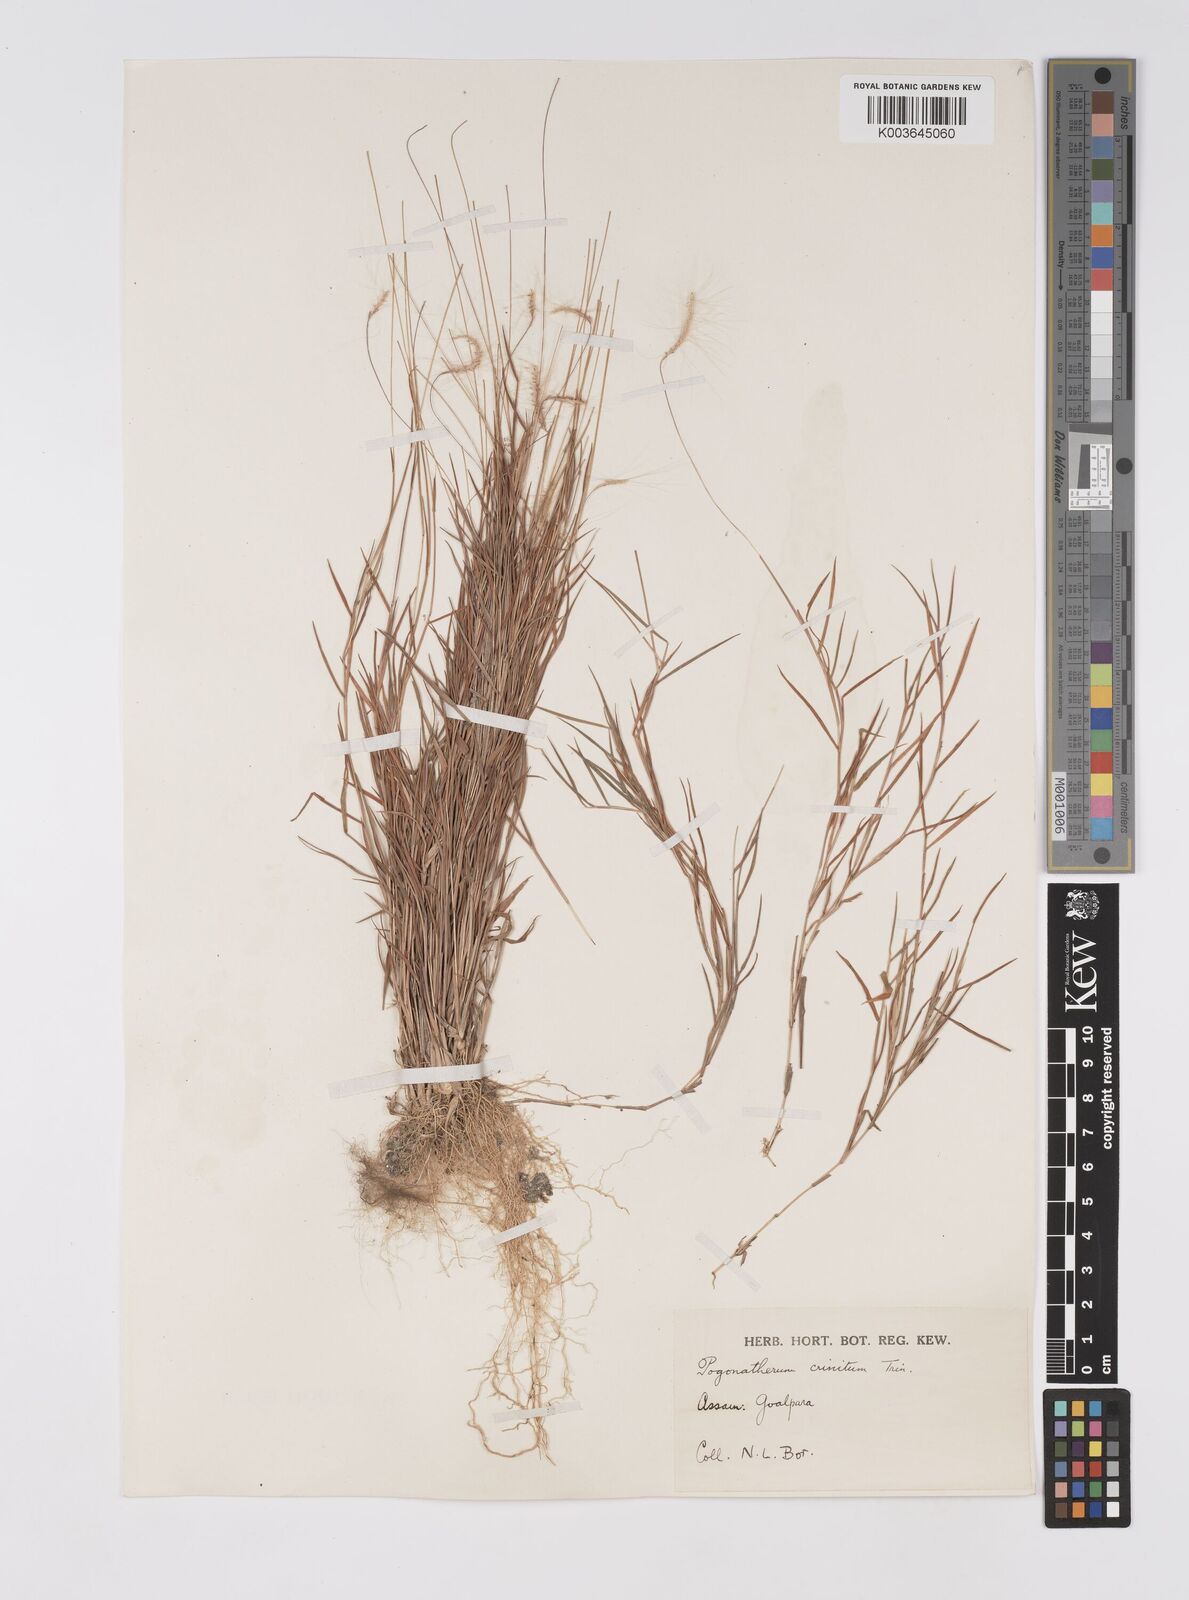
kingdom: Plantae
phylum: Tracheophyta
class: Liliopsida
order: Poales
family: Poaceae
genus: Pogonatherum
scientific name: Pogonatherum crinitum
